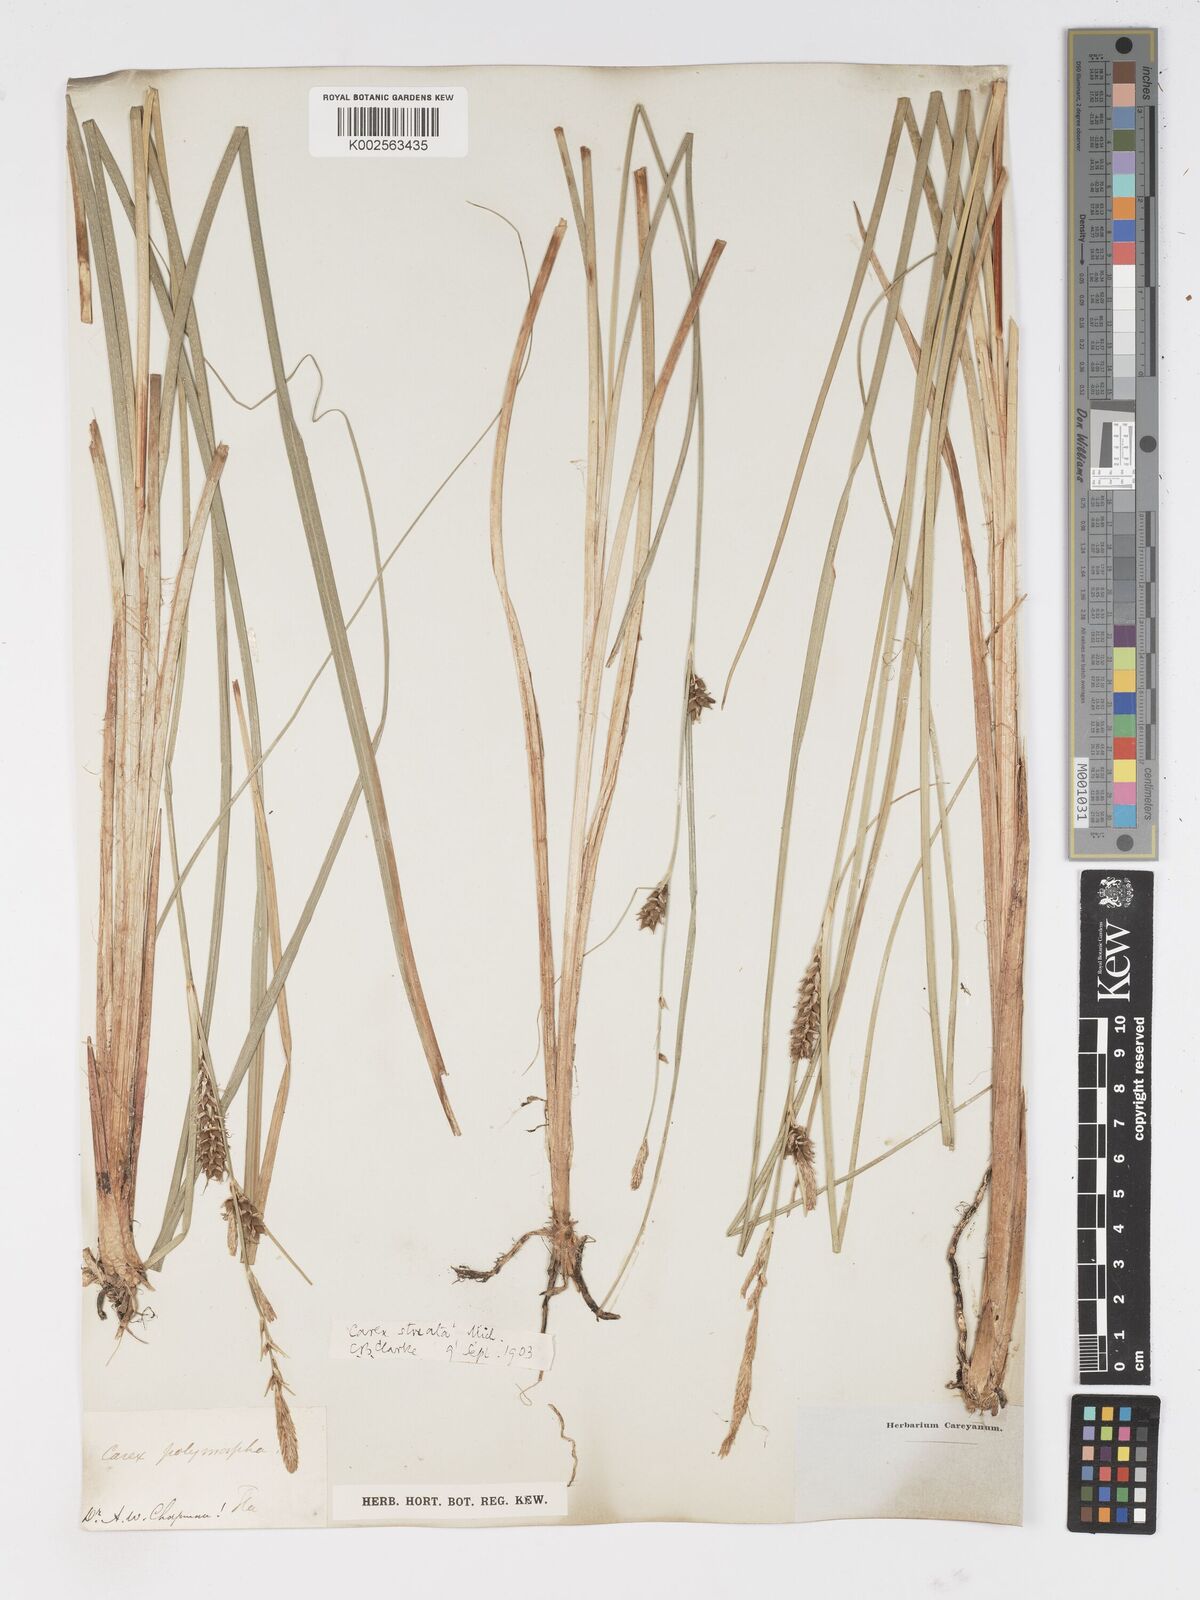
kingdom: Plantae
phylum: Tracheophyta
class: Liliopsida
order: Poales
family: Cyperaceae
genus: Carex
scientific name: Carex trichocarpa
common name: Hairy-fruited lake sedge
